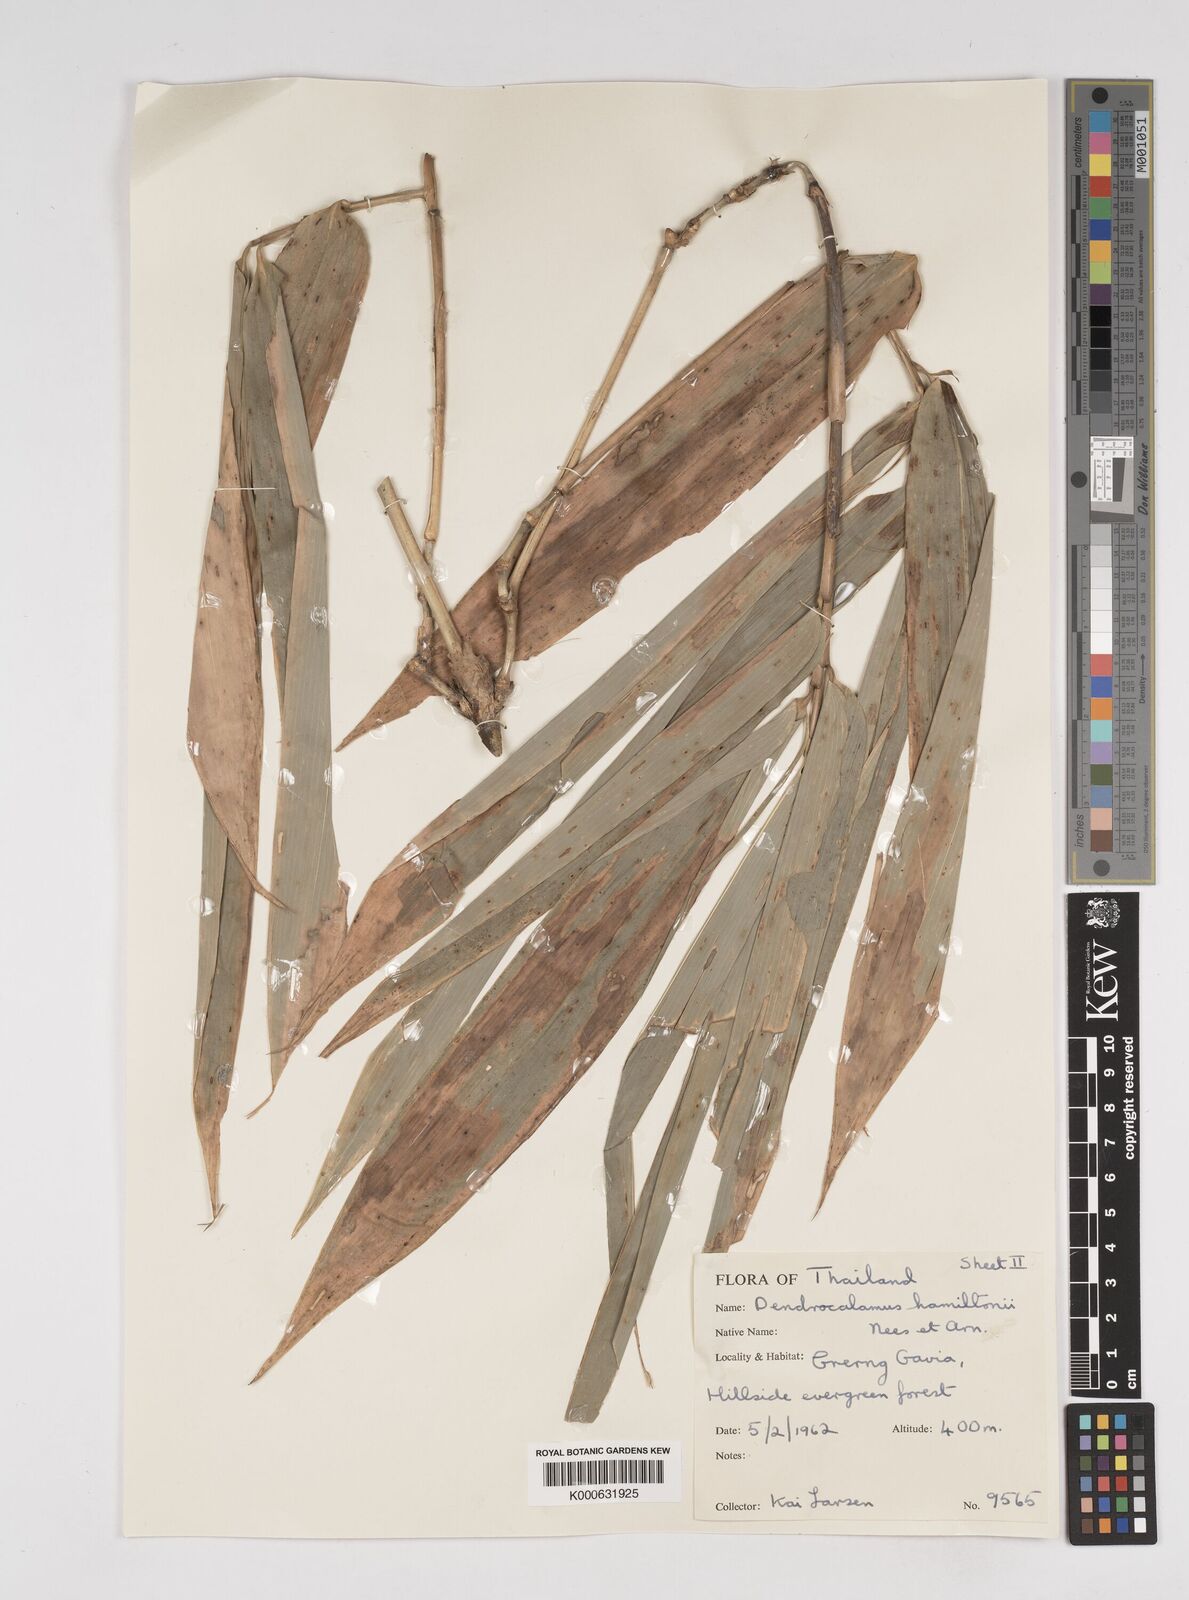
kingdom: Plantae
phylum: Tracheophyta
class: Liliopsida
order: Poales
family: Poaceae
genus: Dendrocalamus
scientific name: Dendrocalamus brandisii
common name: Velvetleaf bamboo
